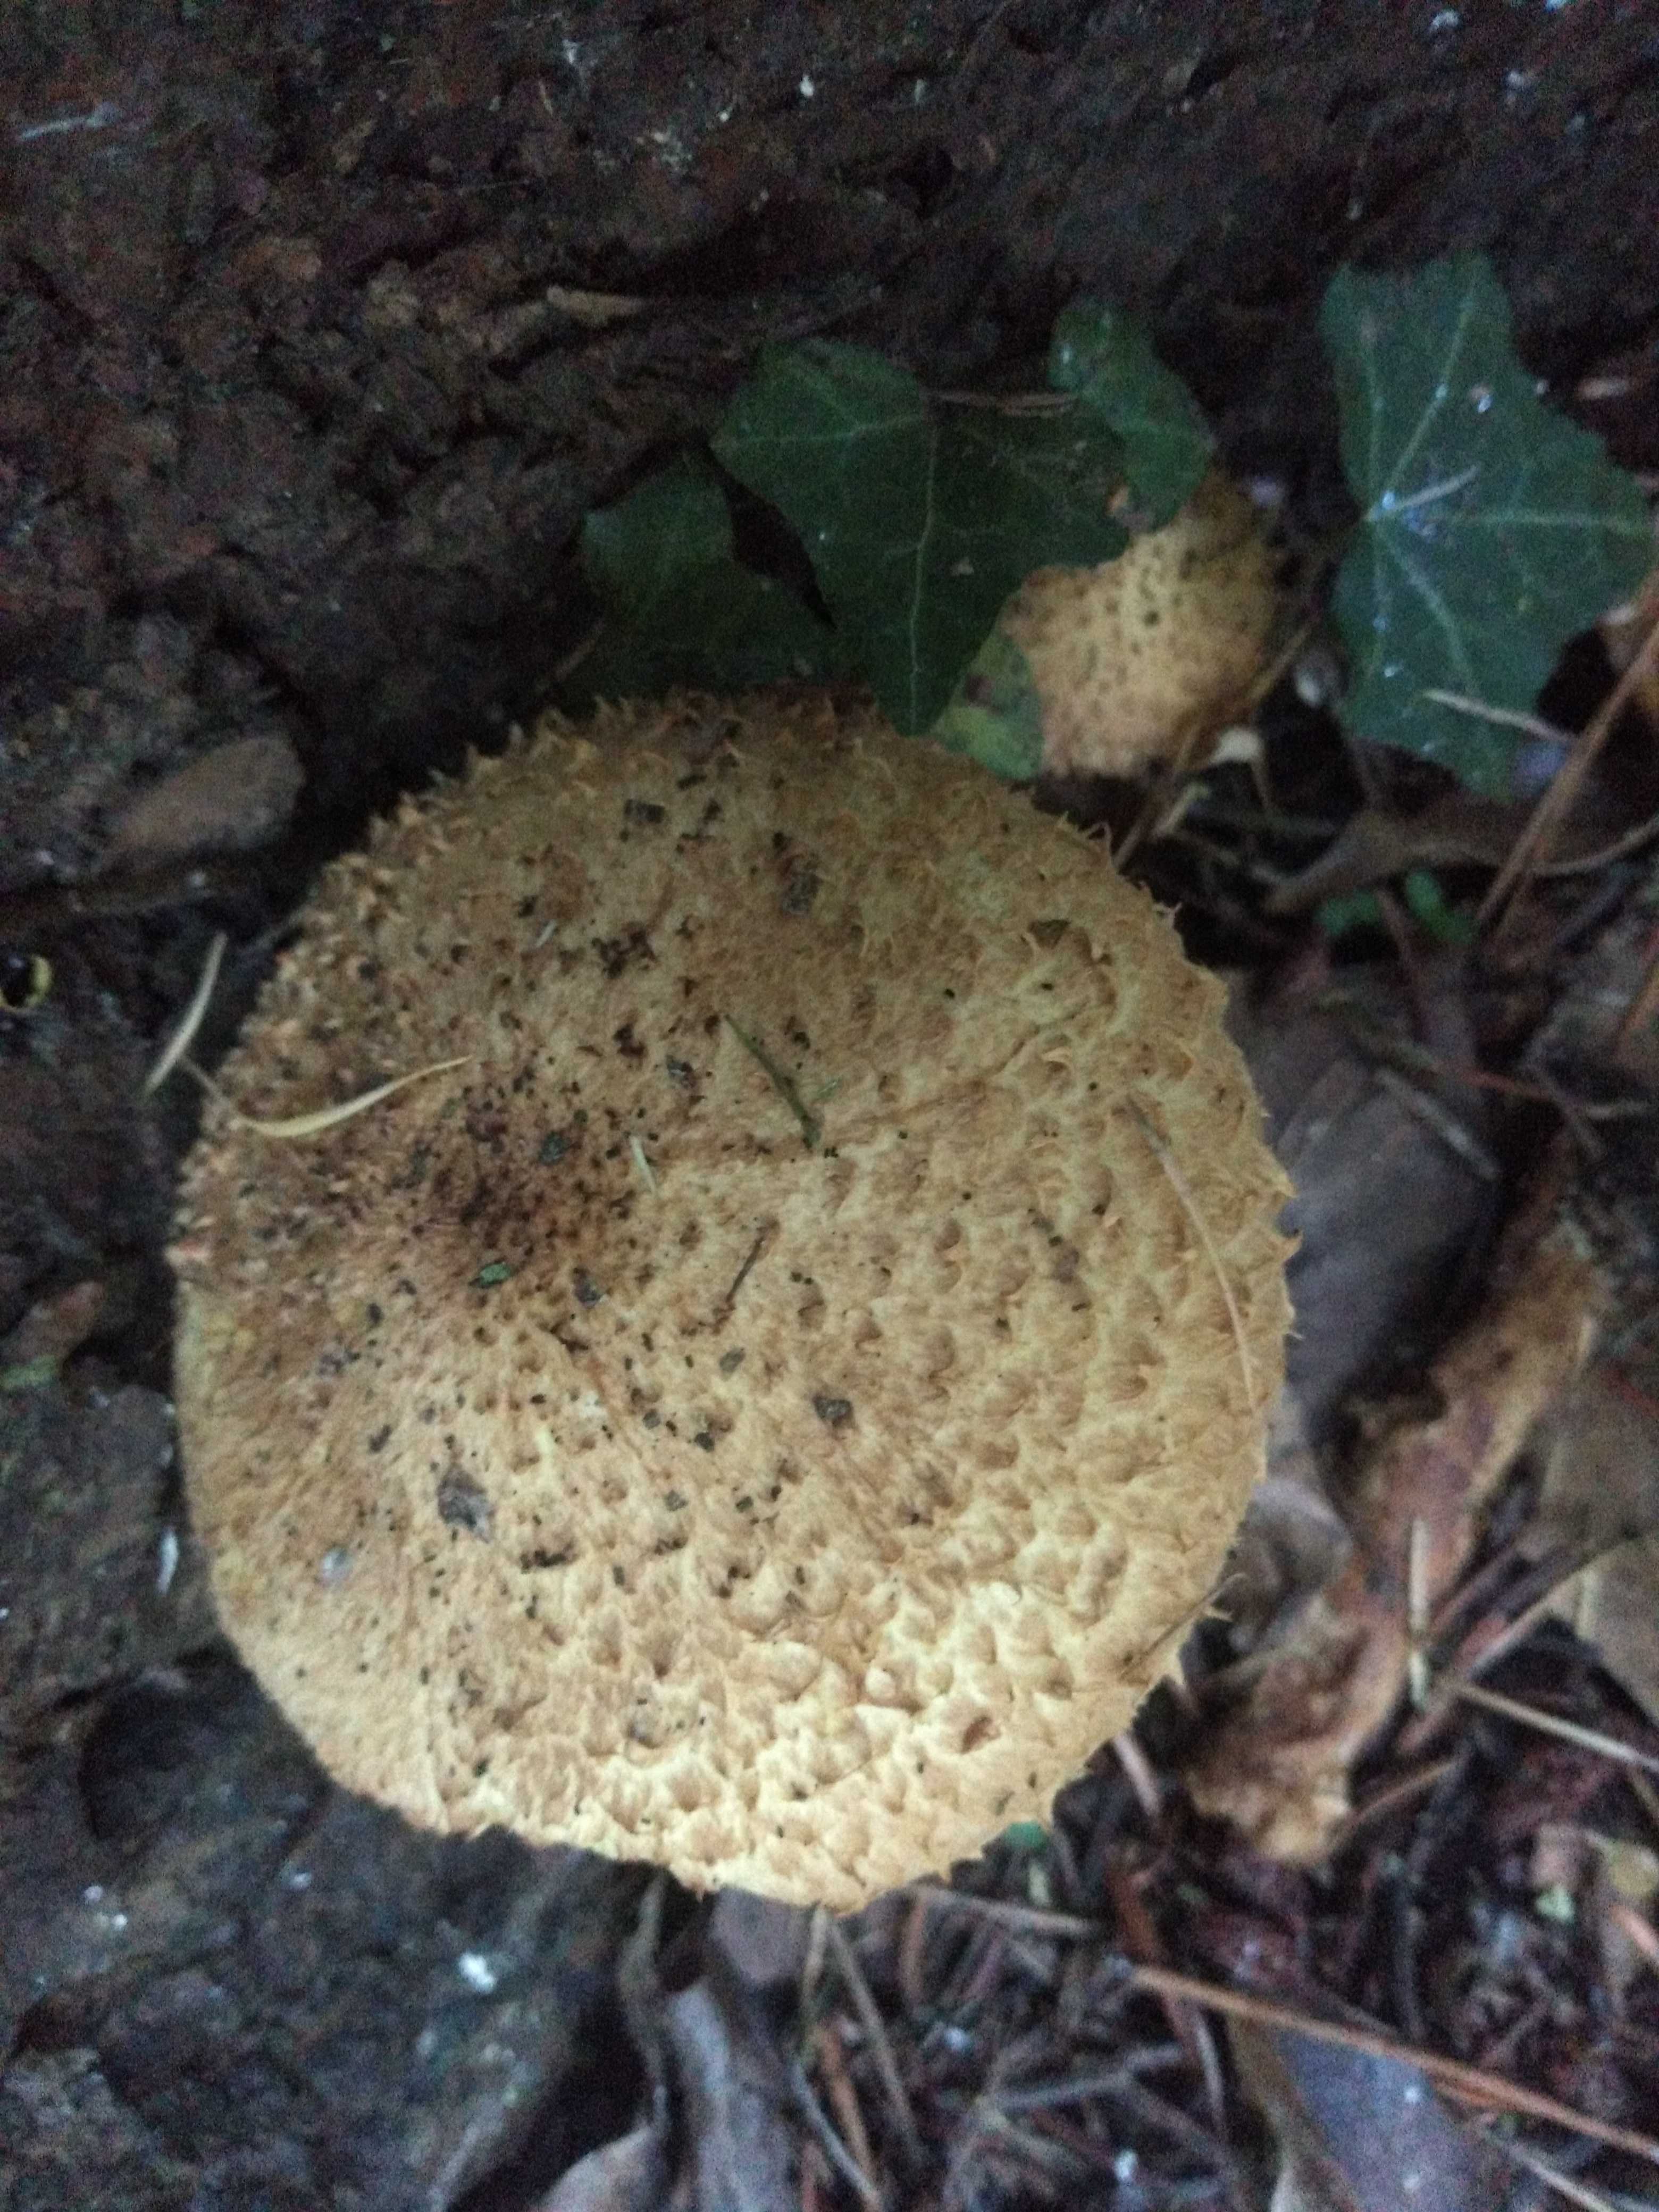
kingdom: Fungi
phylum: Basidiomycota
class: Agaricomycetes
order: Agaricales
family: Strophariaceae
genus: Pholiota
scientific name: Pholiota squarrosa
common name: krumskællet skælhat
